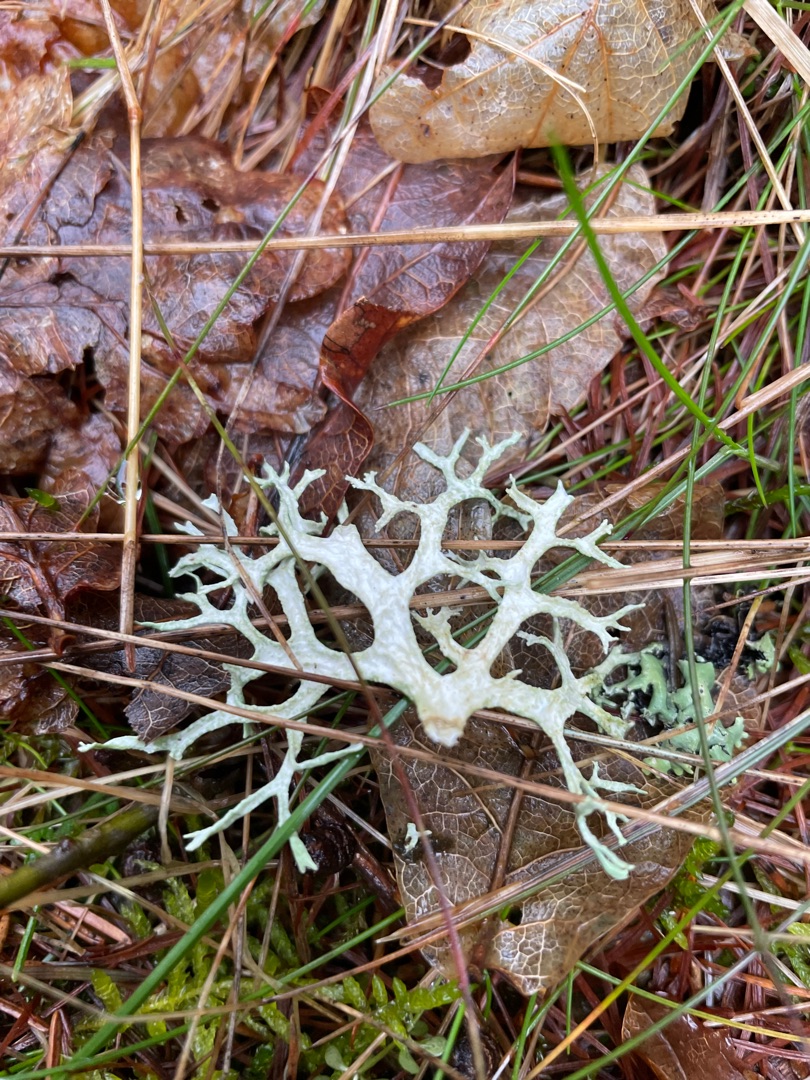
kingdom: Fungi
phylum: Ascomycota
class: Lecanoromycetes
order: Lecanorales
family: Parmeliaceae
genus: Evernia
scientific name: Evernia prunastri
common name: Almindelig slåenlav
